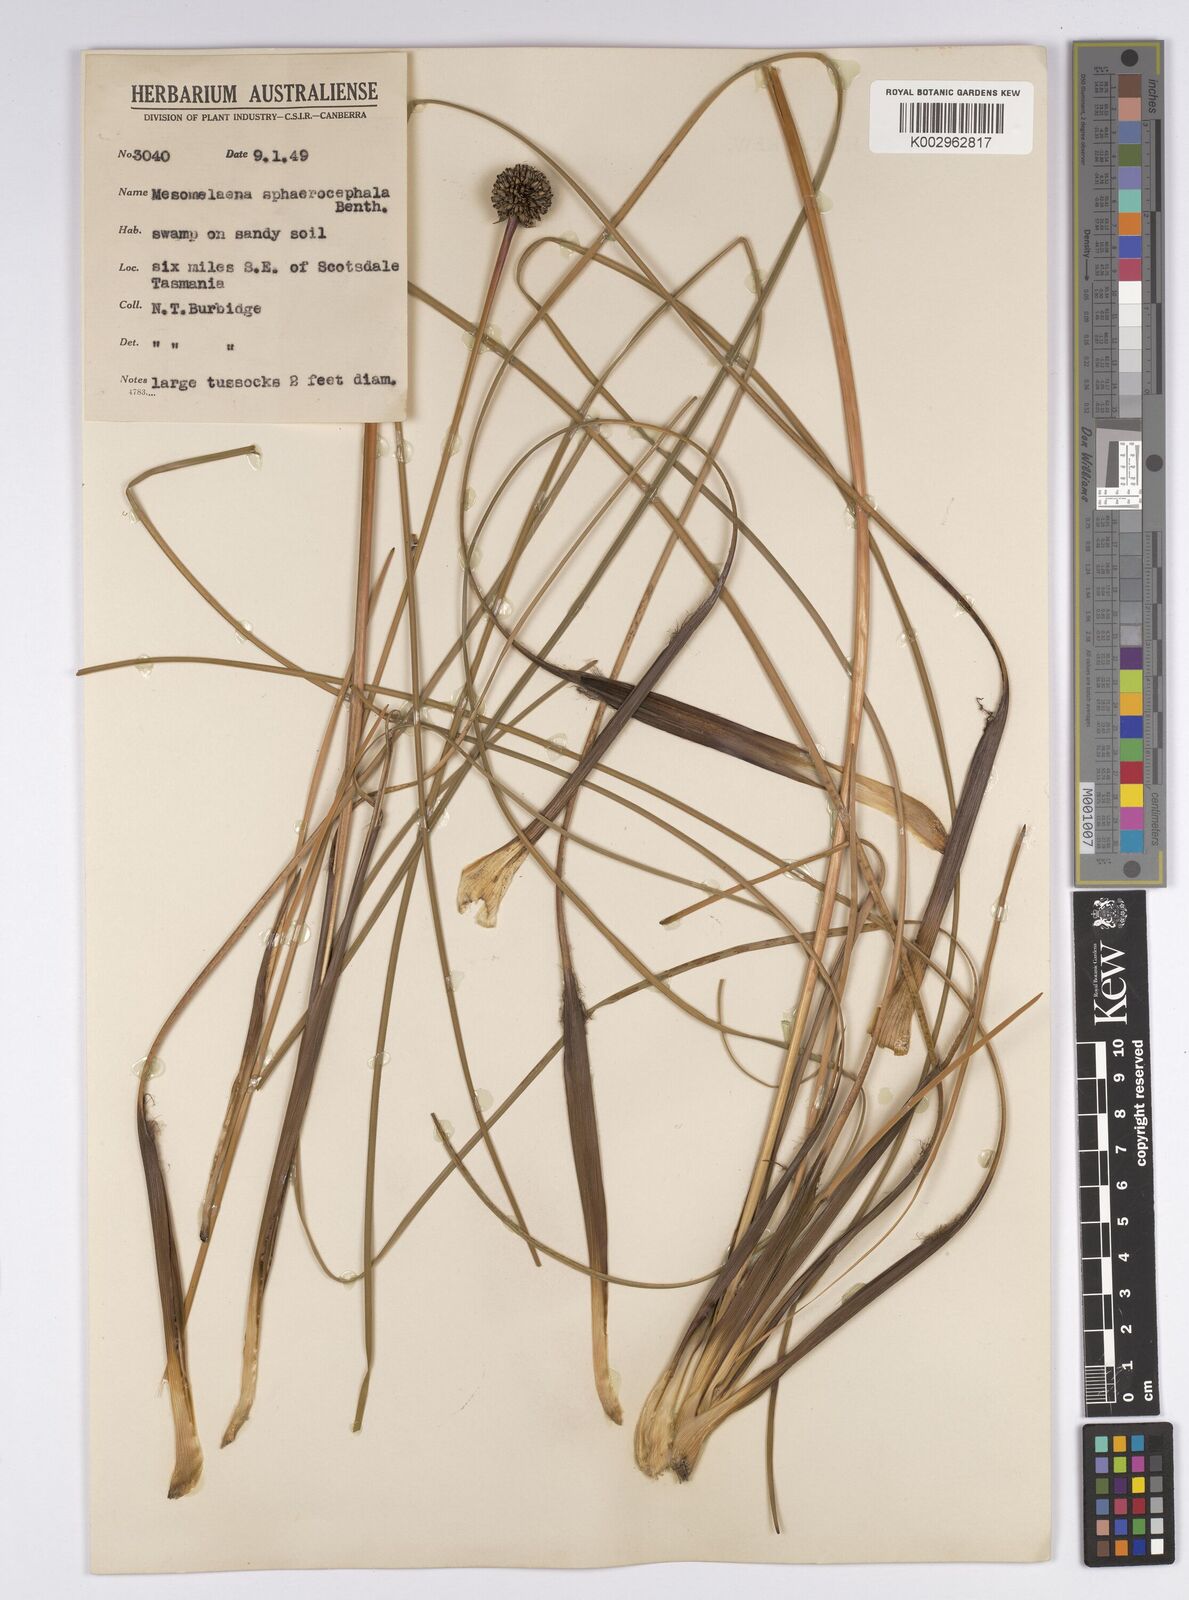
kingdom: Plantae
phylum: Tracheophyta
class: Liliopsida
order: Poales
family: Cyperaceae
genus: Gymnoschoenus
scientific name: Gymnoschoenus sphaerocephalus
